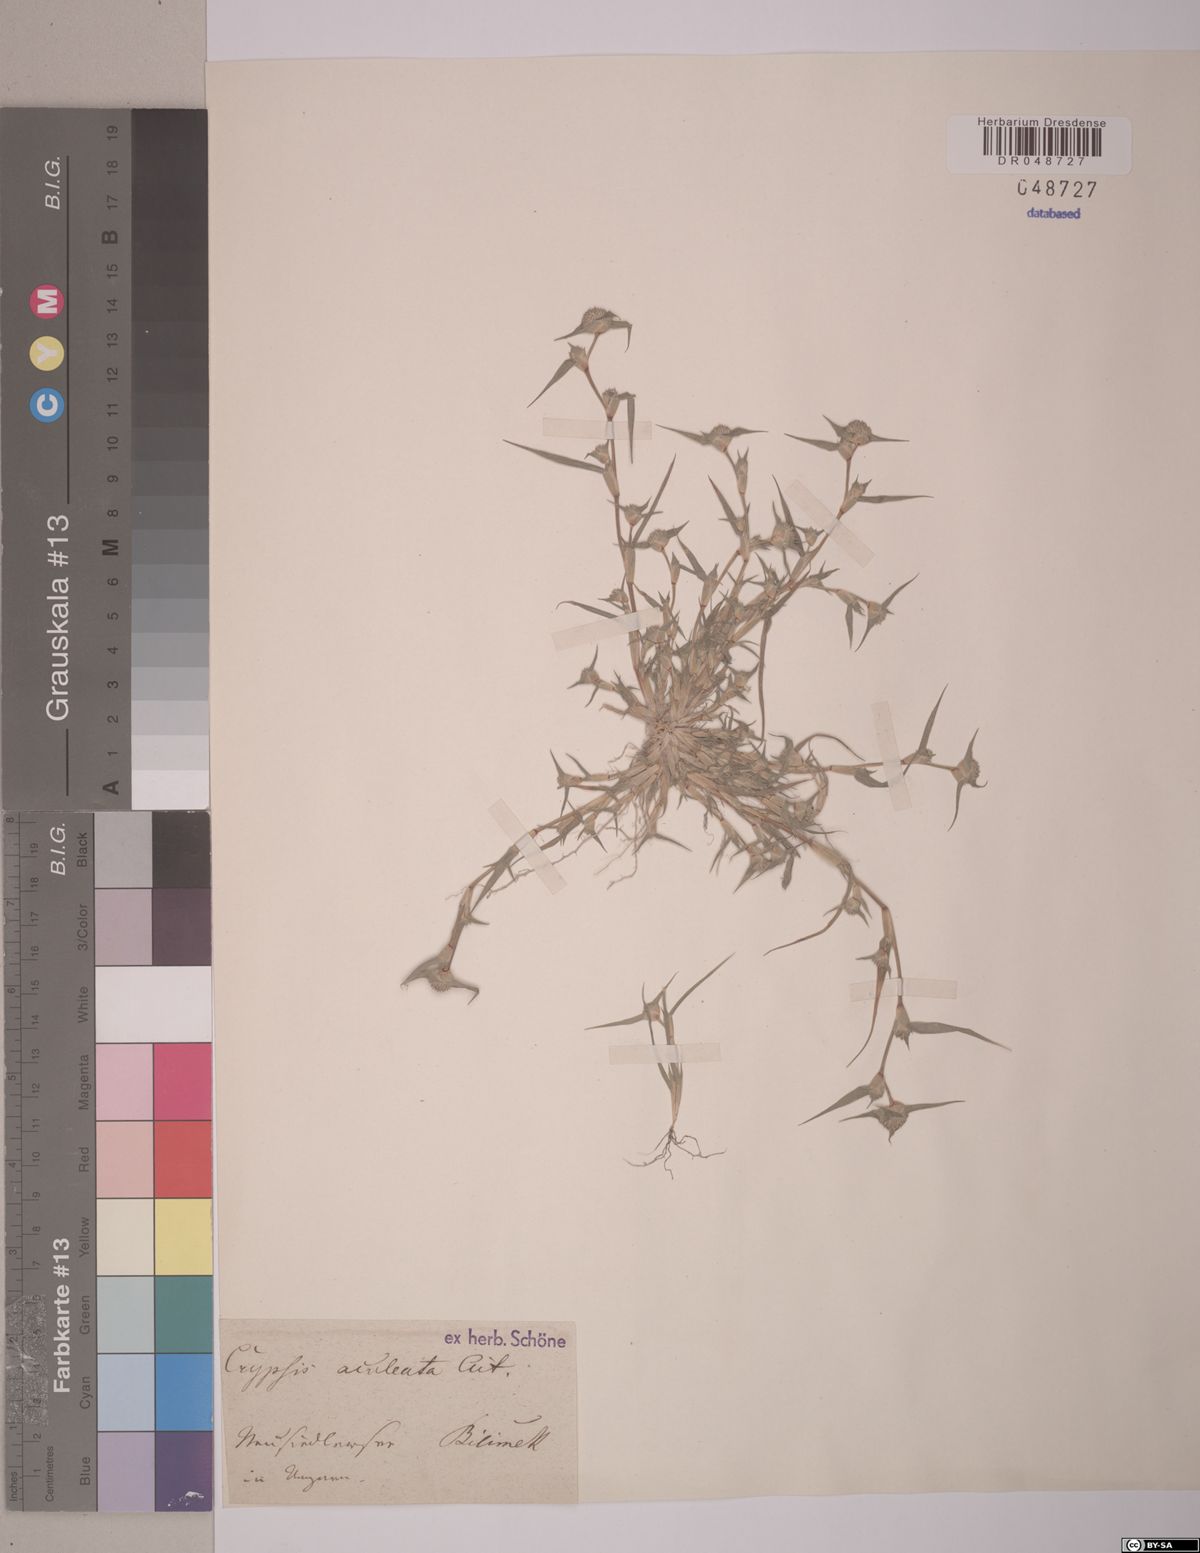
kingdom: Plantae
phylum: Tracheophyta
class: Liliopsida
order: Poales
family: Poaceae
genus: Sporobolus
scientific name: Sporobolus aculeatus
